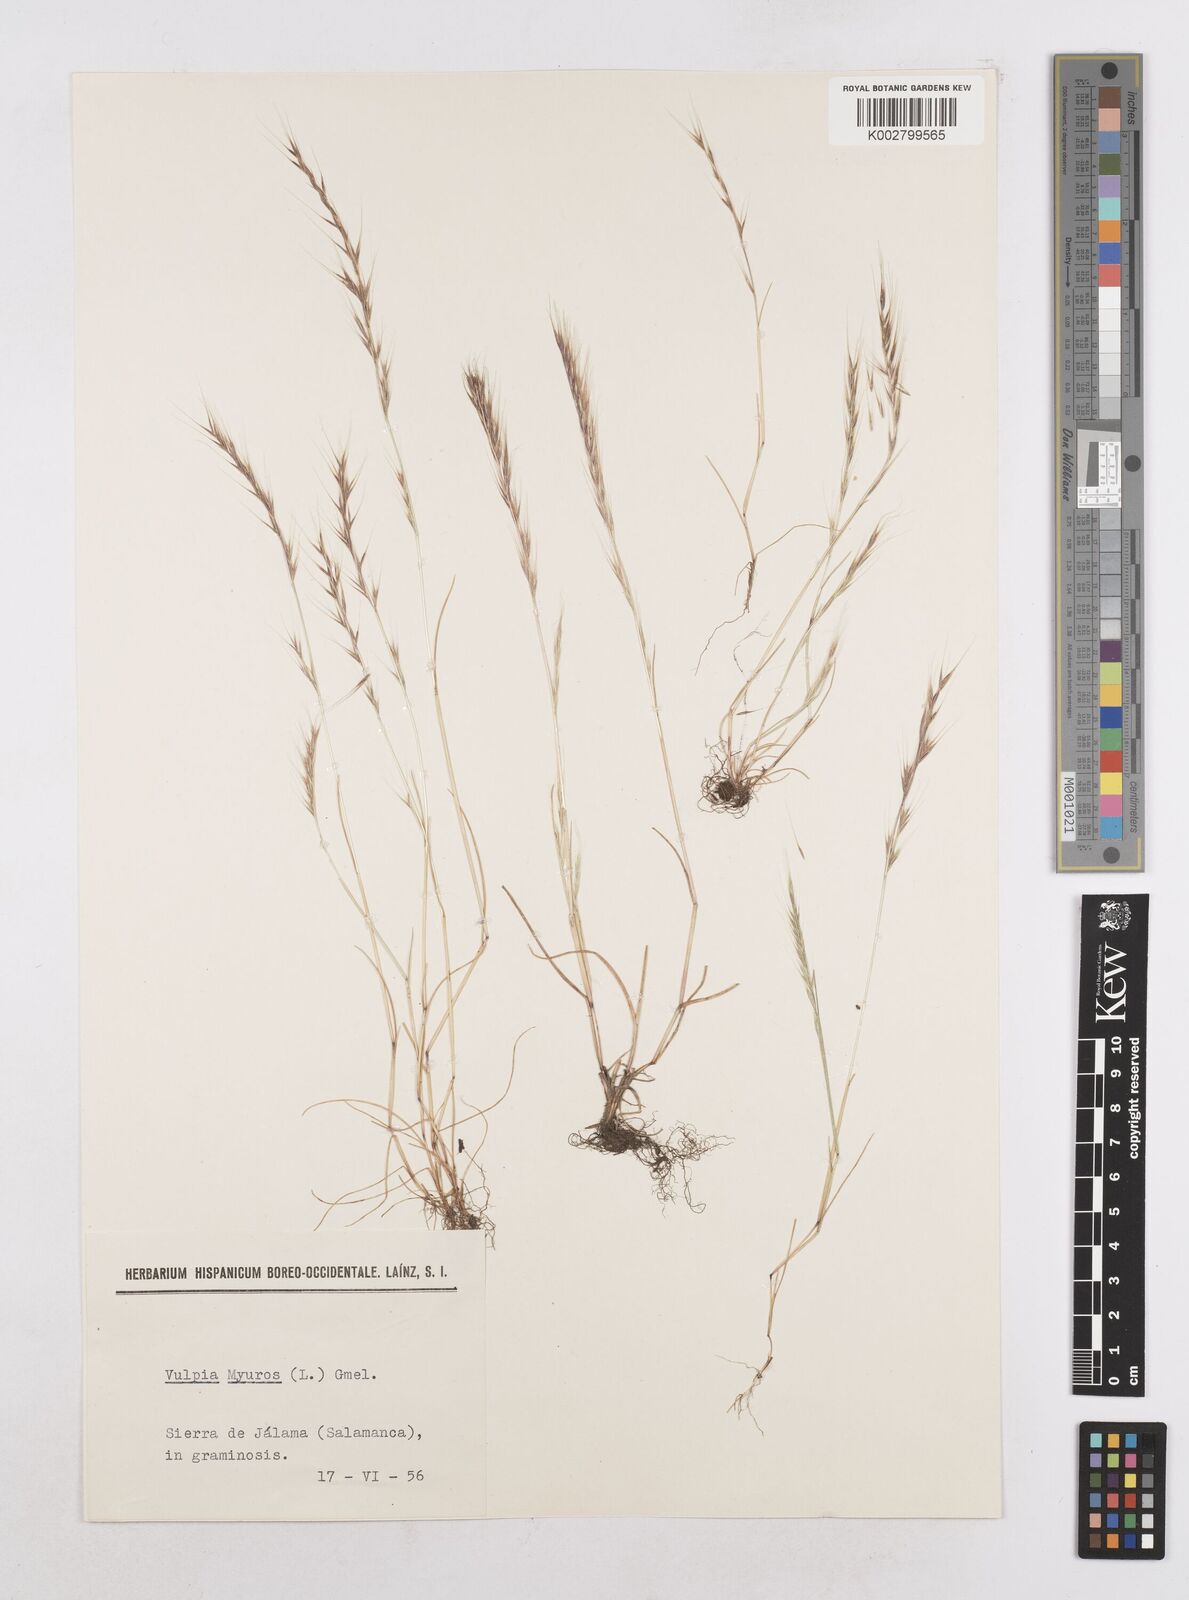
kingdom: Plantae
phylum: Tracheophyta
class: Liliopsida
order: Poales
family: Poaceae
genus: Festuca
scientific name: Festuca myuros
